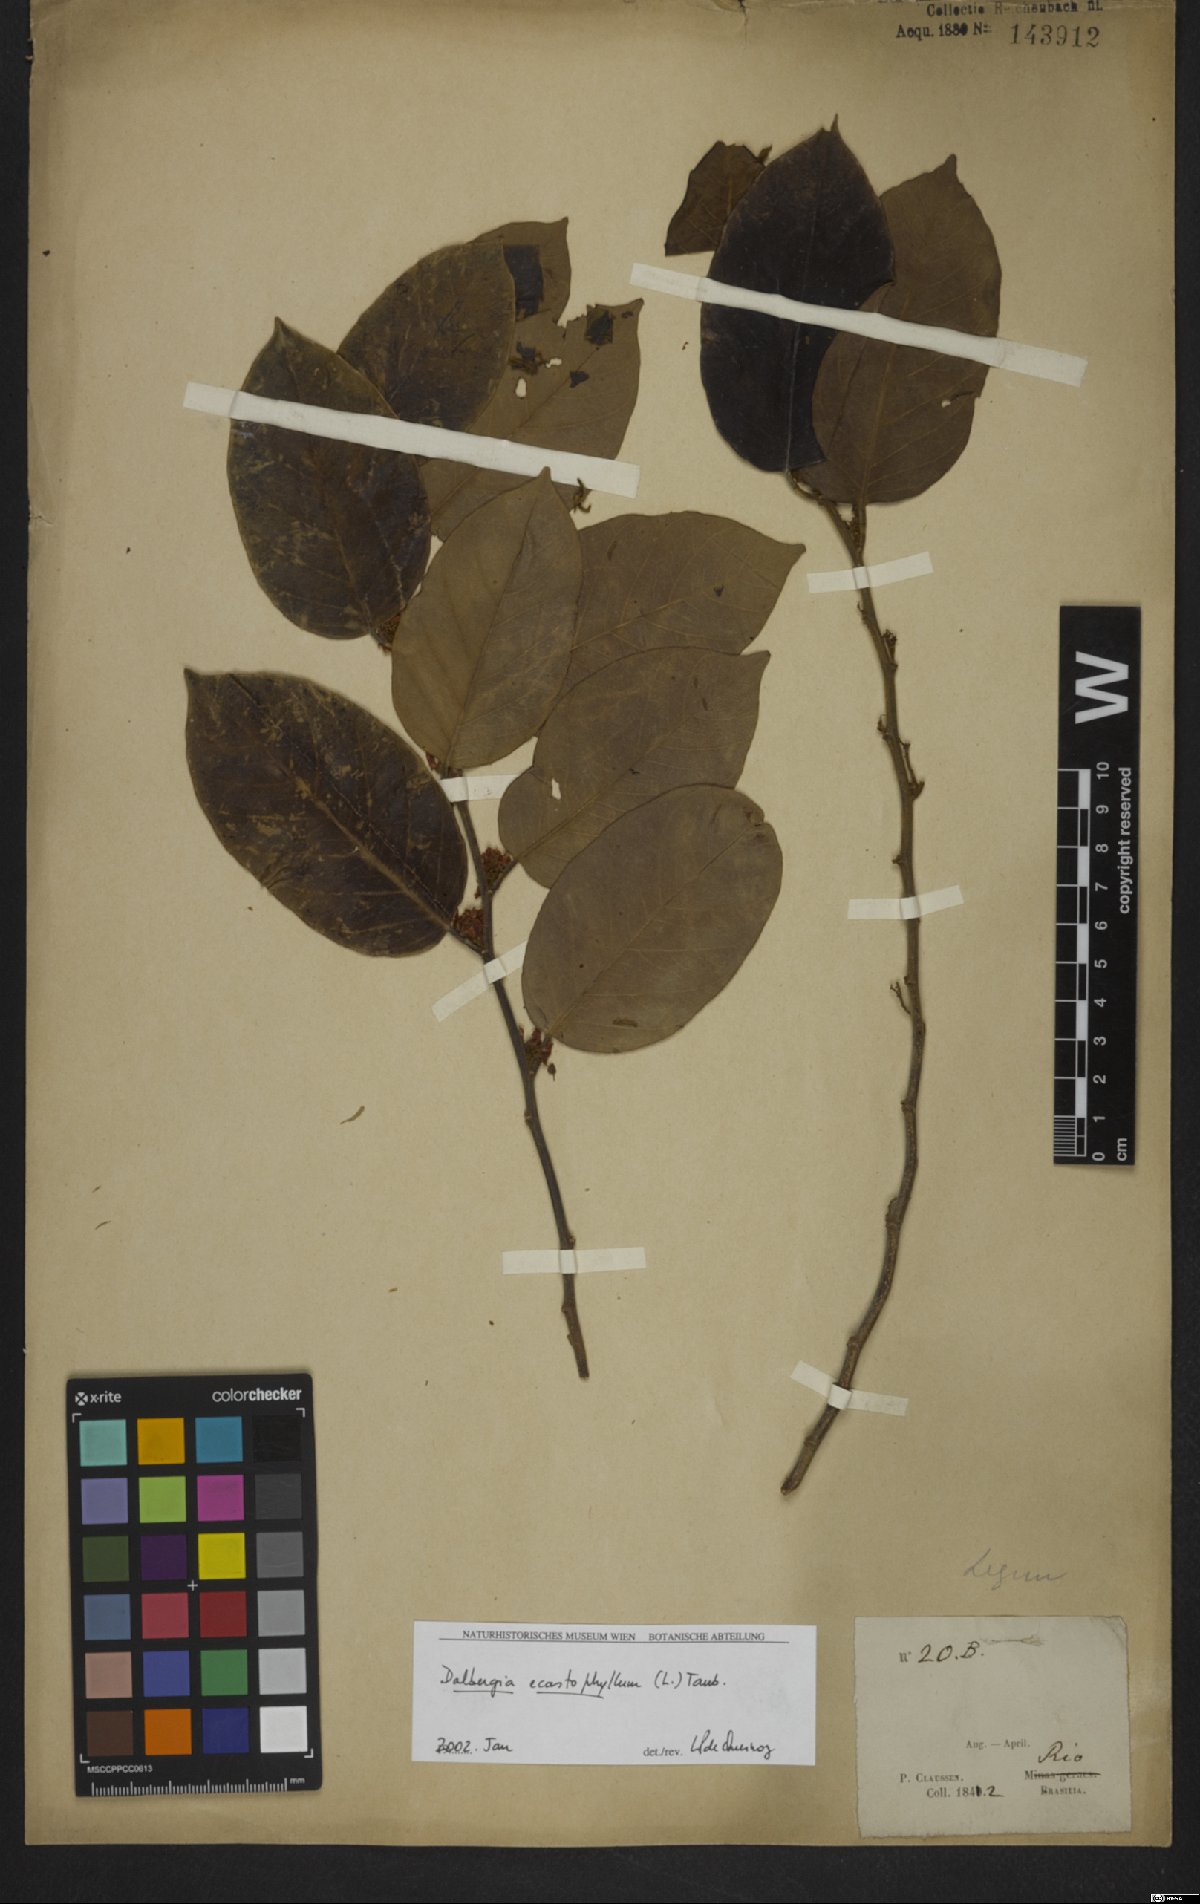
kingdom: Plantae
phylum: Tracheophyta
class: Magnoliopsida
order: Fabales
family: Fabaceae
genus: Dalbergia
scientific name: Dalbergia ecastaphyllum
